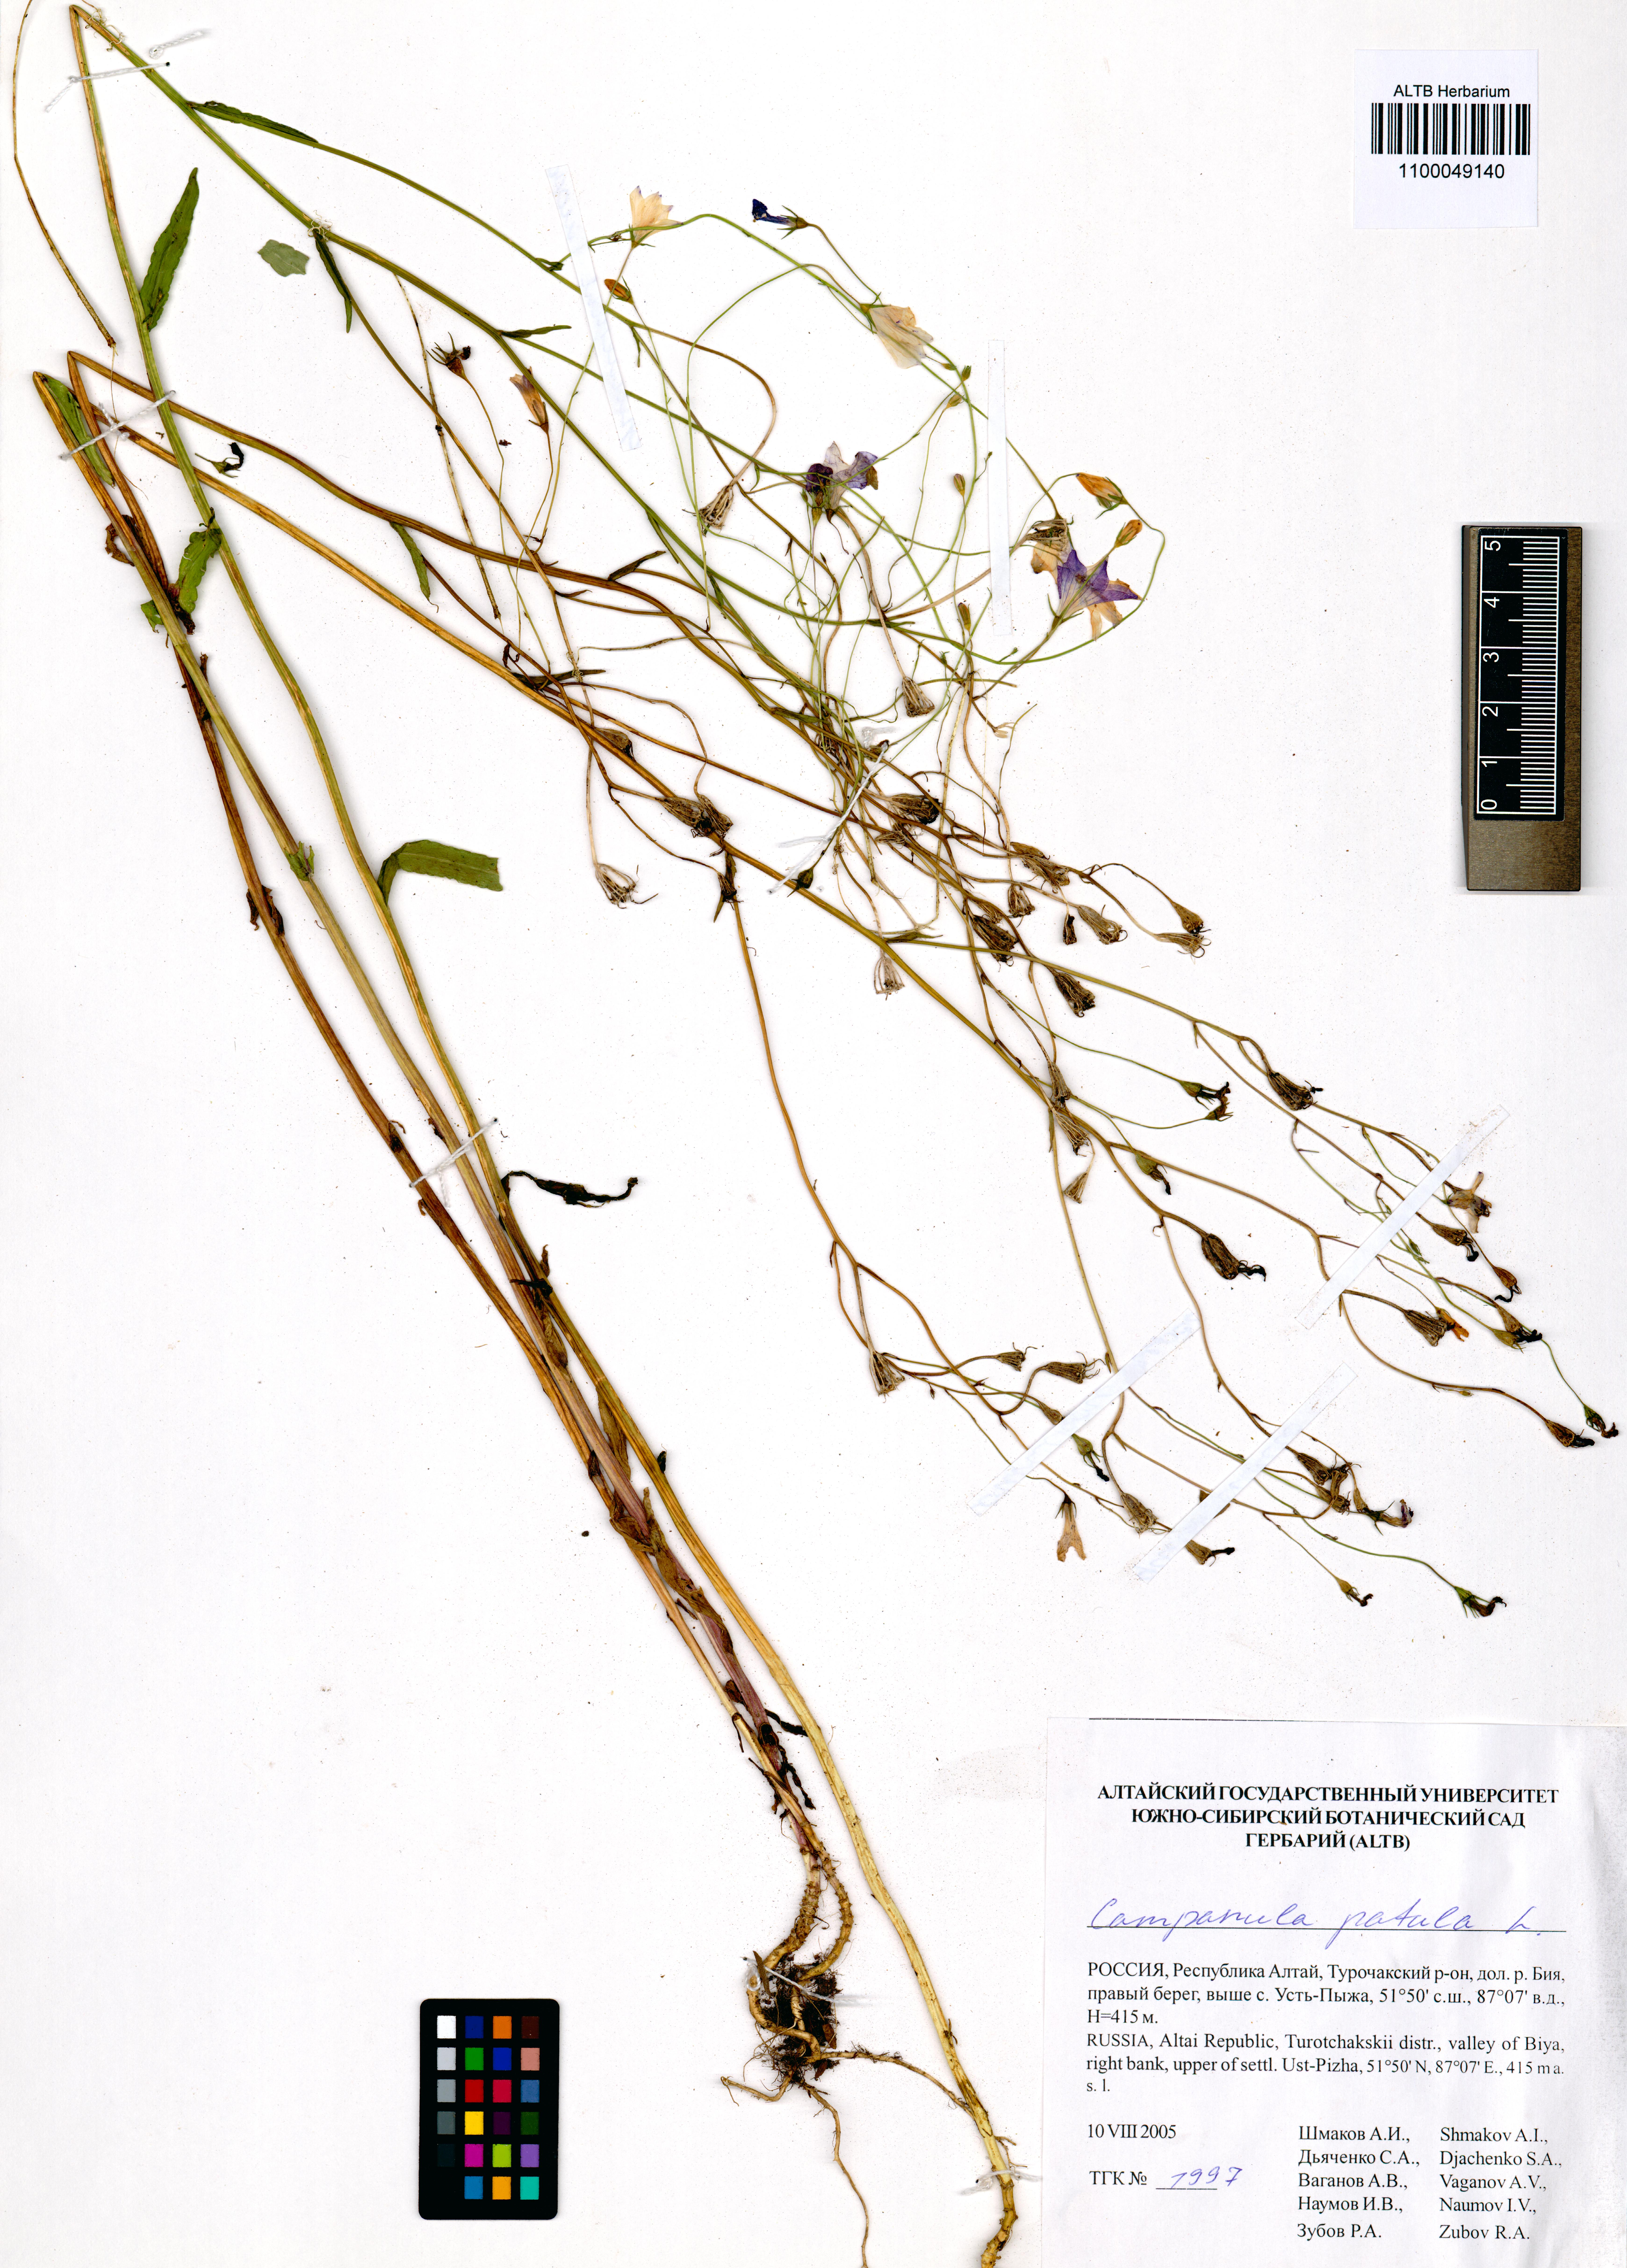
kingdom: Plantae
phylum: Tracheophyta
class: Magnoliopsida
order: Asterales
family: Campanulaceae
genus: Campanula
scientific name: Campanula patula
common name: Spreading bellflower
